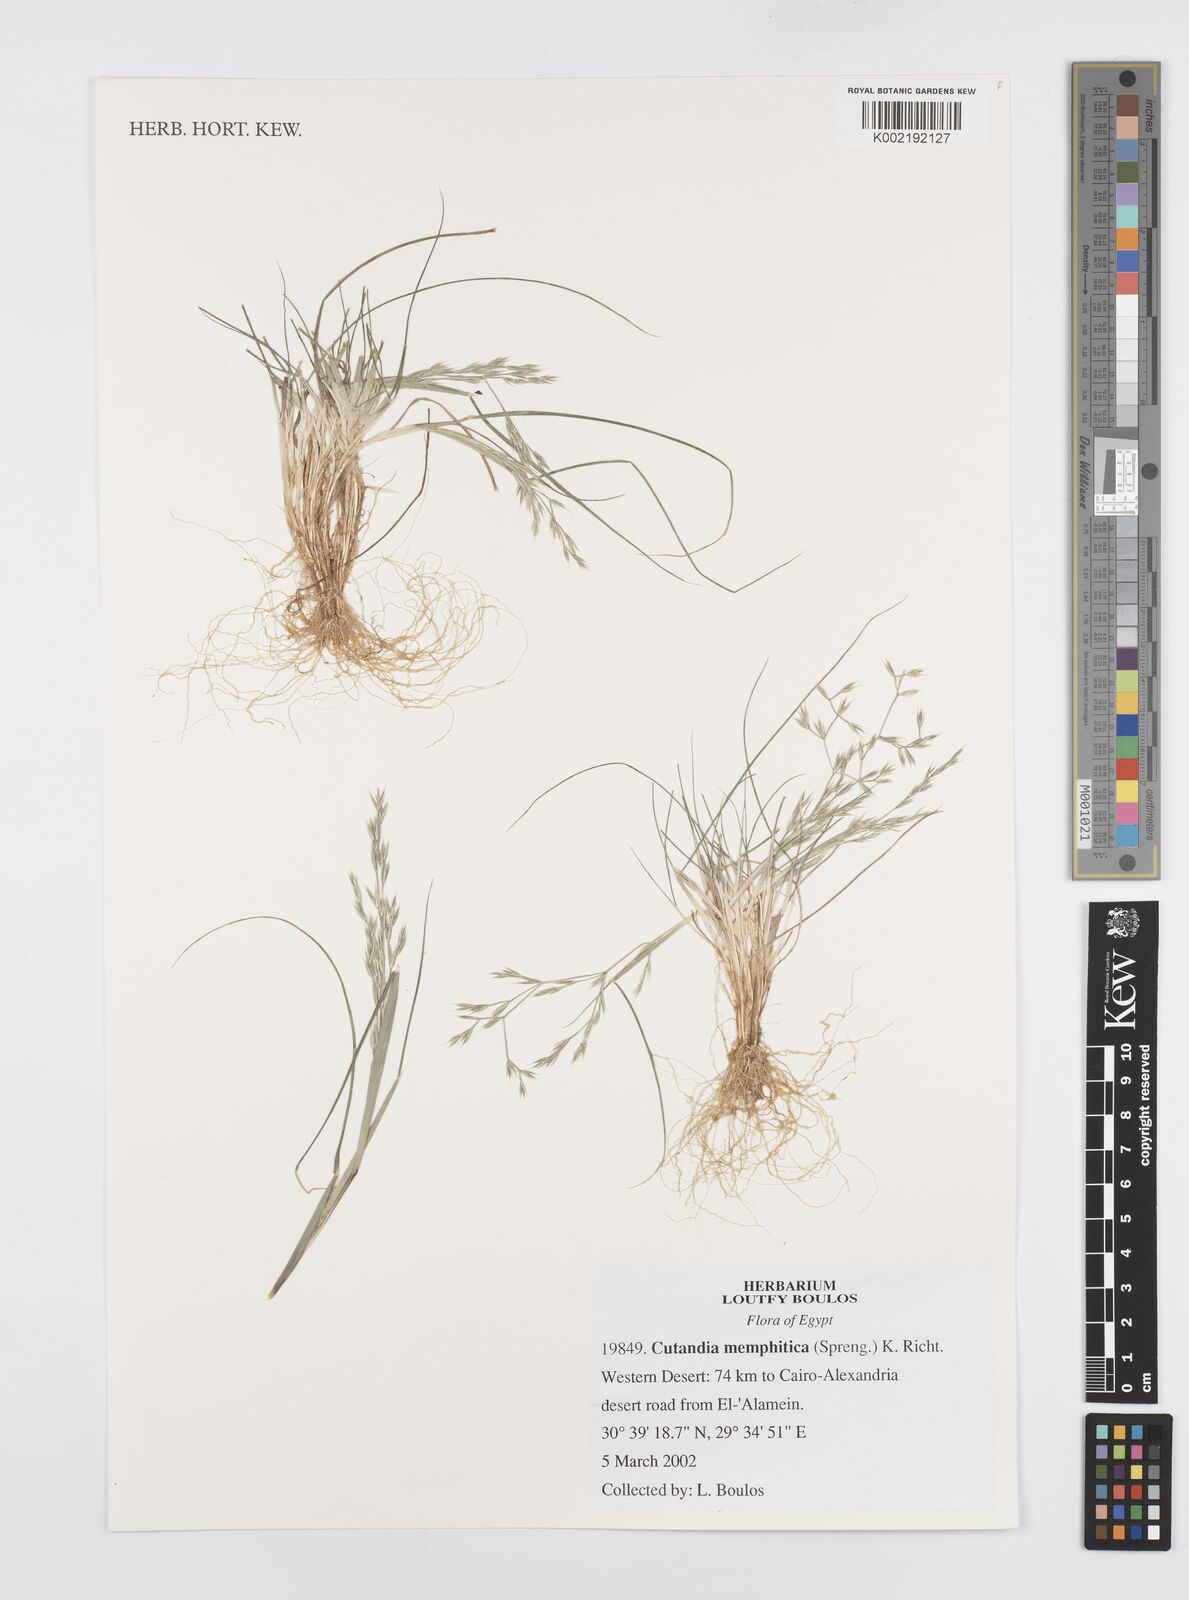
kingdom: Plantae
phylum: Tracheophyta
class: Liliopsida
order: Poales
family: Poaceae
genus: Cutandia
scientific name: Cutandia memphitica
